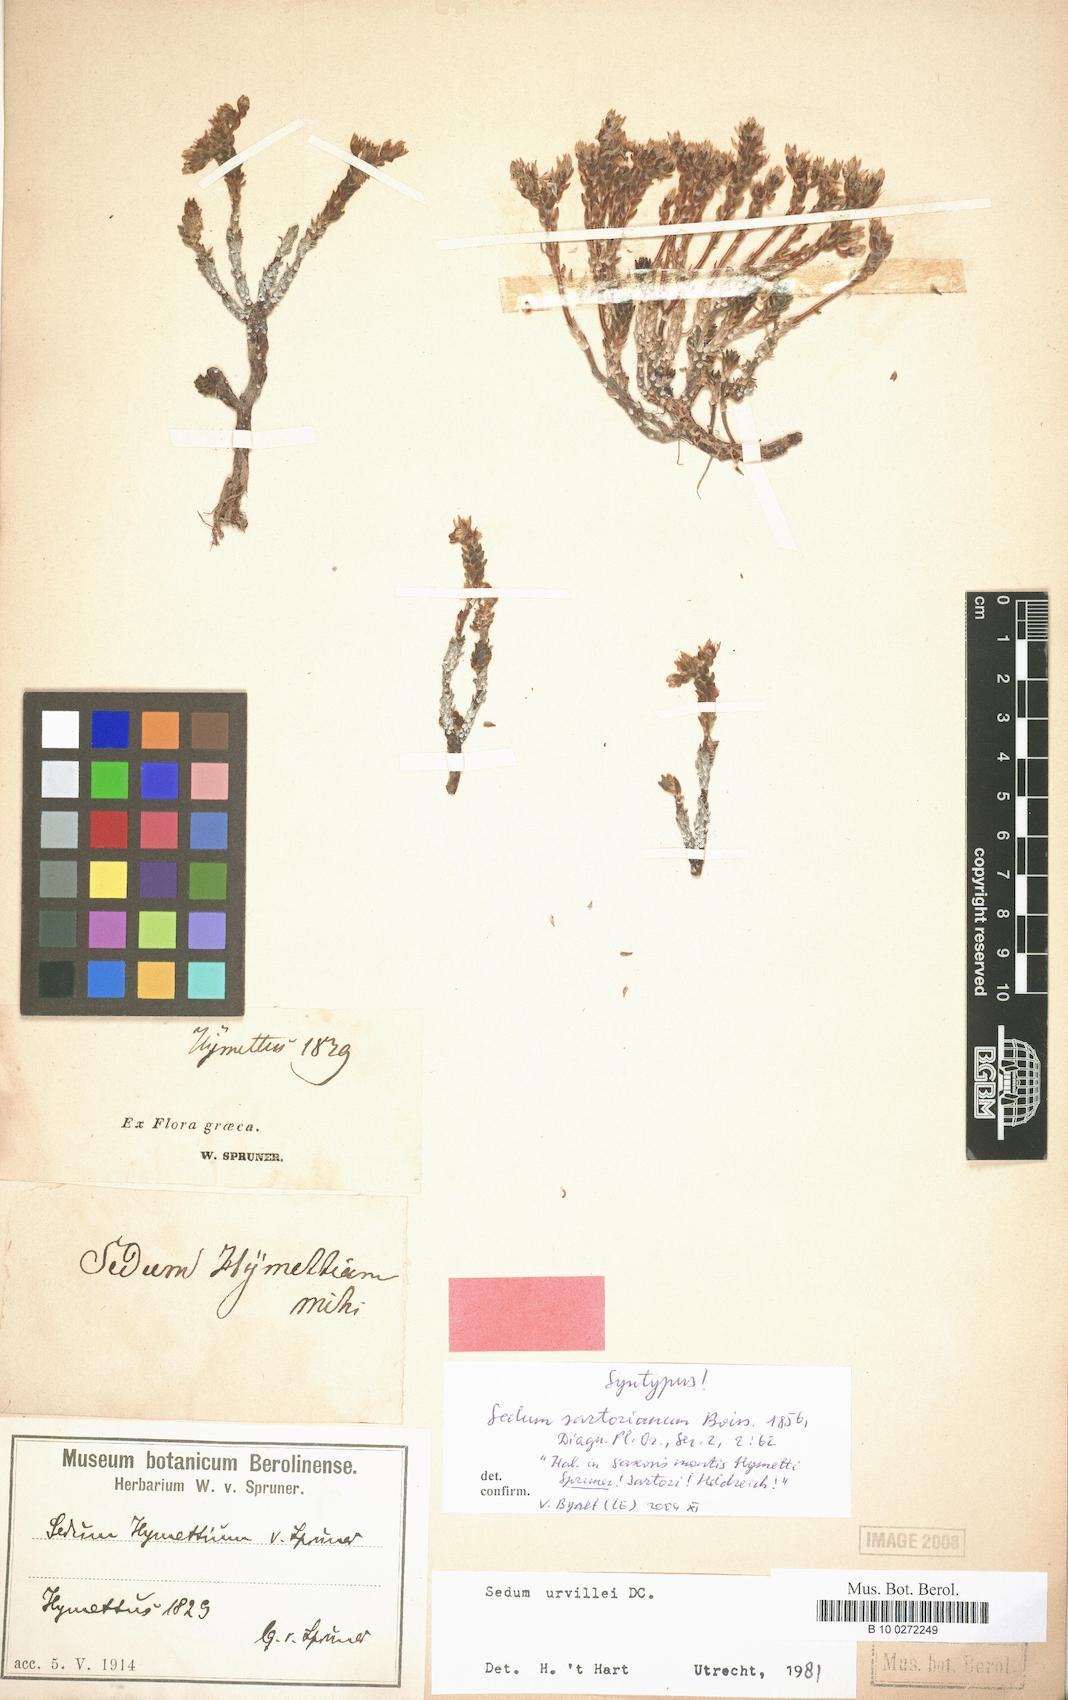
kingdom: Plantae
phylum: Tracheophyta
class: Magnoliopsida
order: Saxifragales
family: Crassulaceae
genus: Sedum
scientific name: Sedum urvillei
